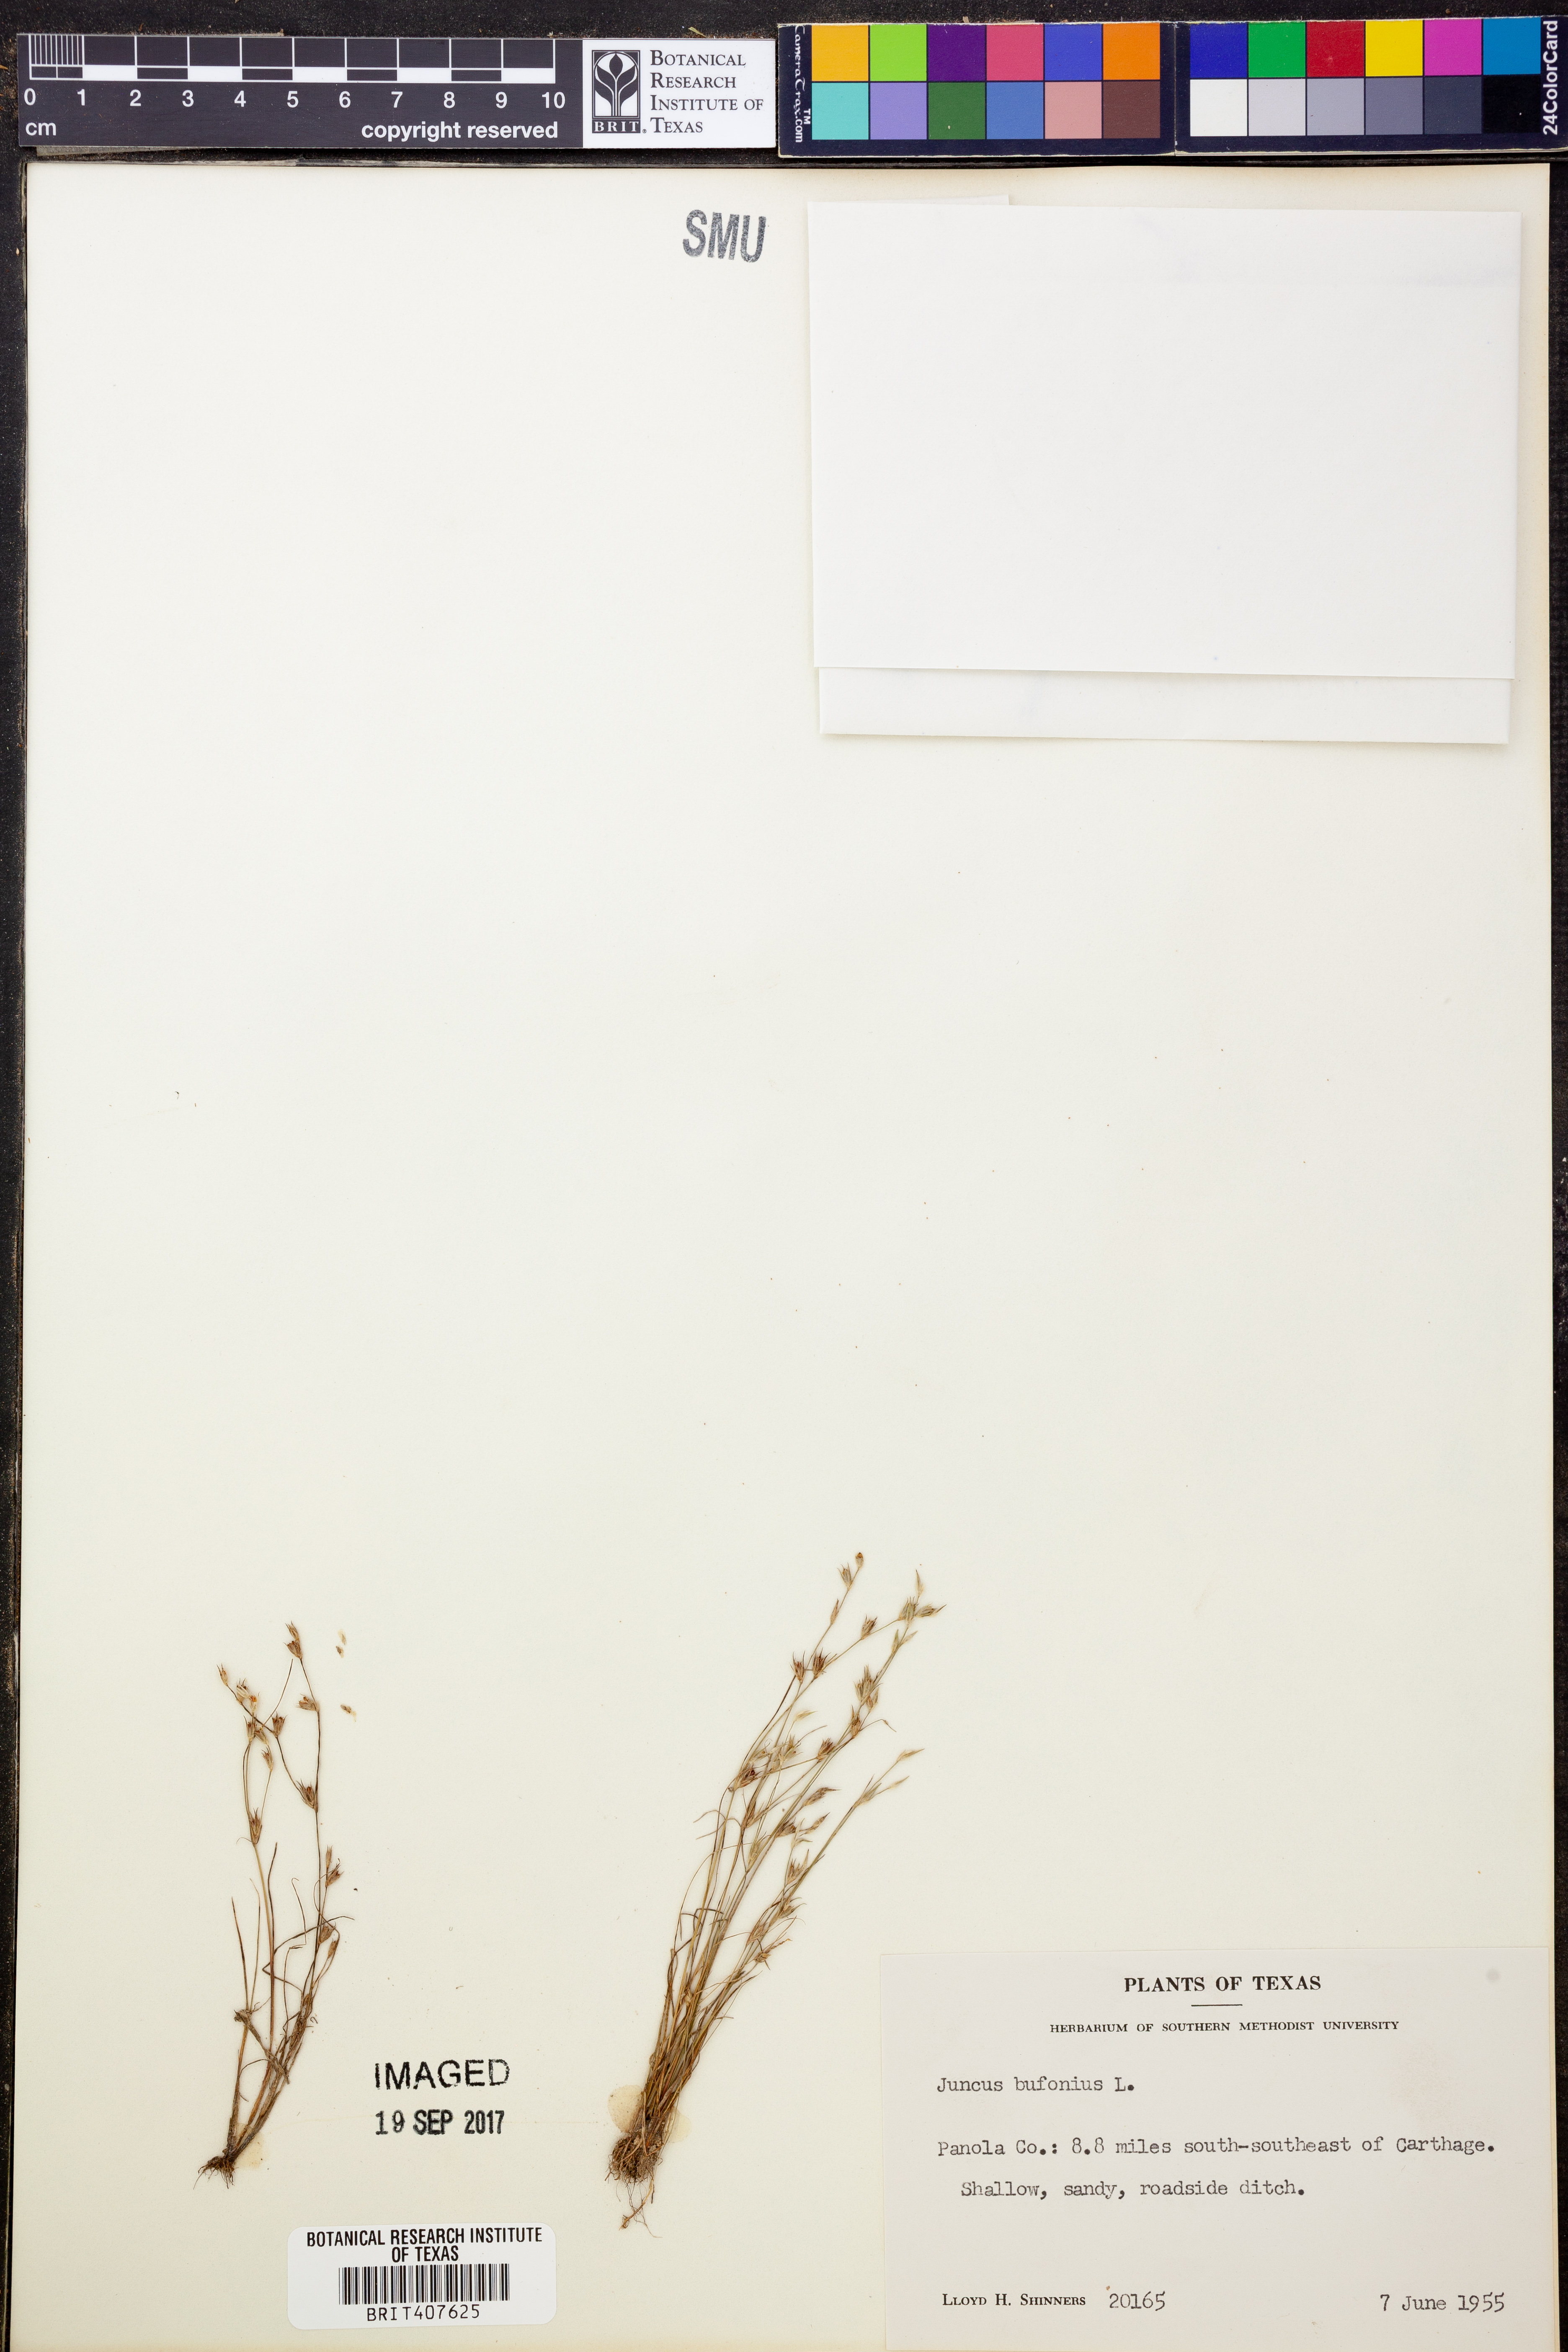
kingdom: Plantae
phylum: Tracheophyta
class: Liliopsida
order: Poales
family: Juncaceae
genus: Juncus
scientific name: Juncus bufonius
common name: Toad rush
